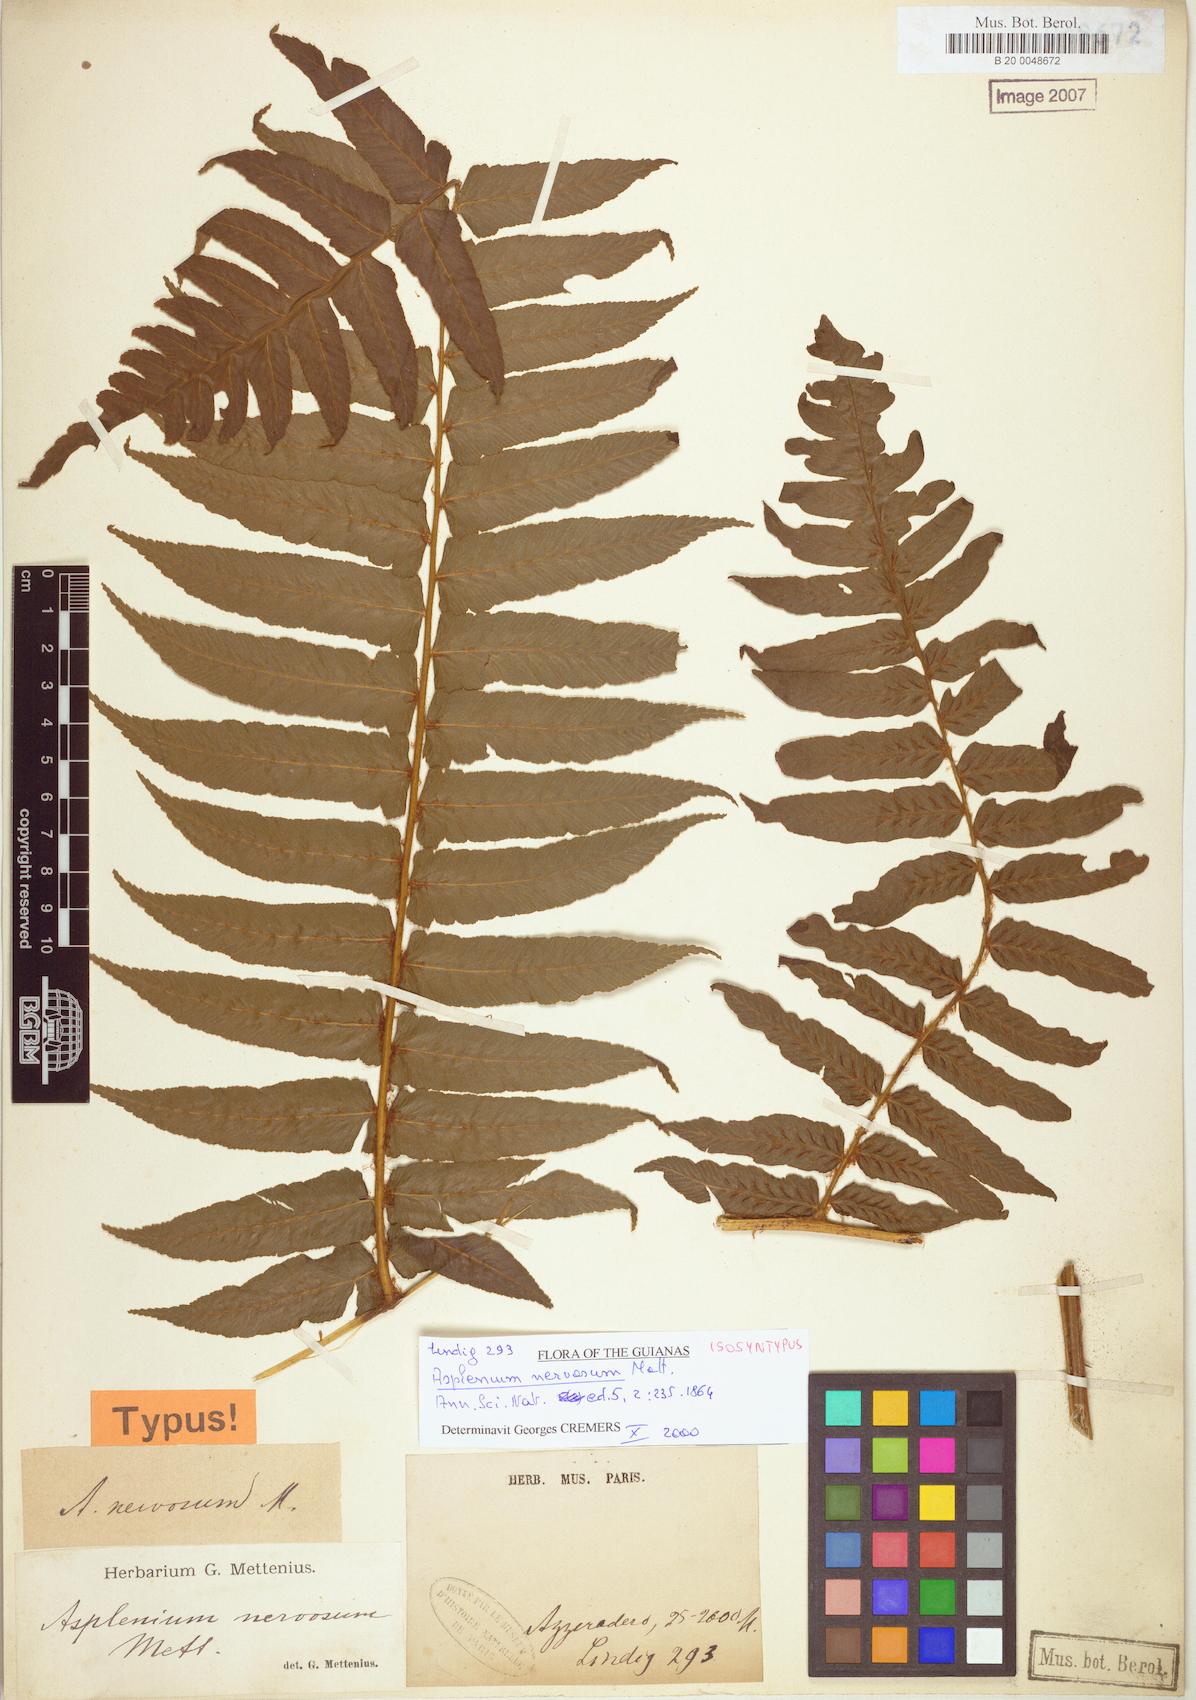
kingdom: Plantae
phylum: Tracheophyta
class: Polypodiopsida
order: Polypodiales
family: Athyriaceae
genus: Diplazium
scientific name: Diplazium nervosum
